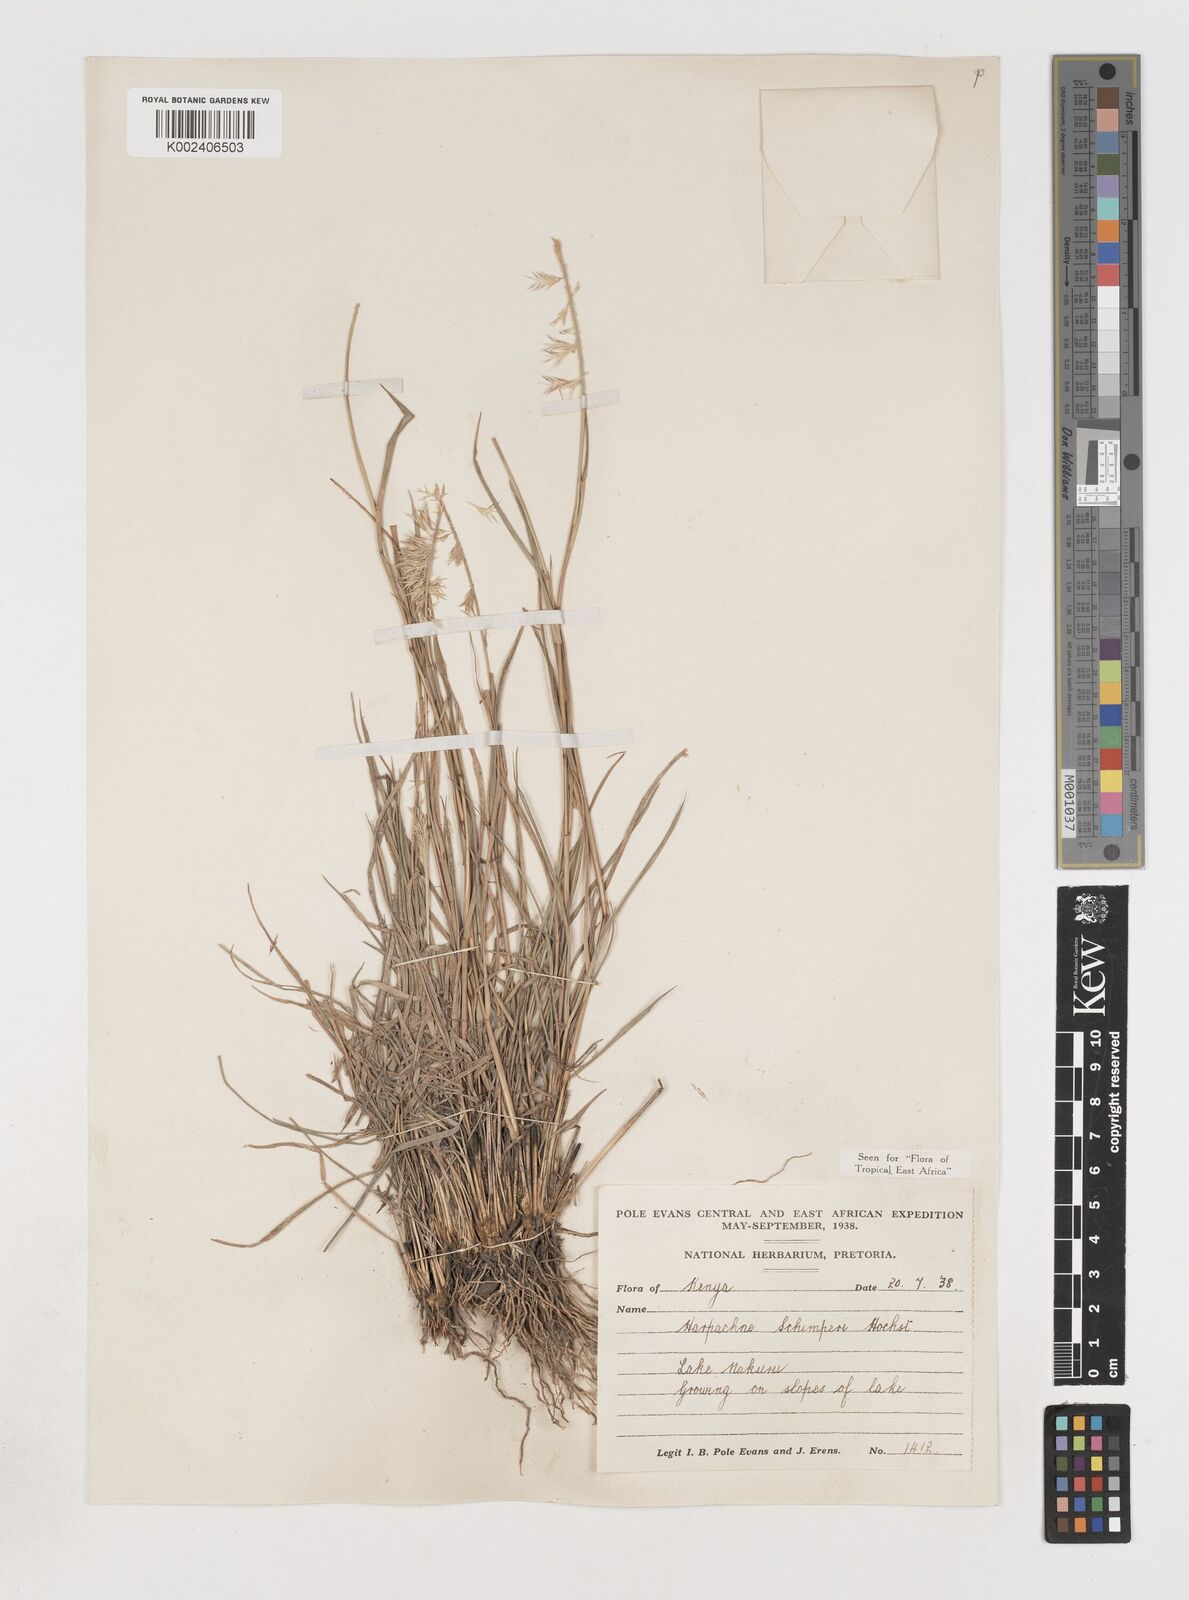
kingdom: Plantae
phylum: Tracheophyta
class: Liliopsida
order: Poales
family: Poaceae
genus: Harpachne
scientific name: Harpachne schimperi
